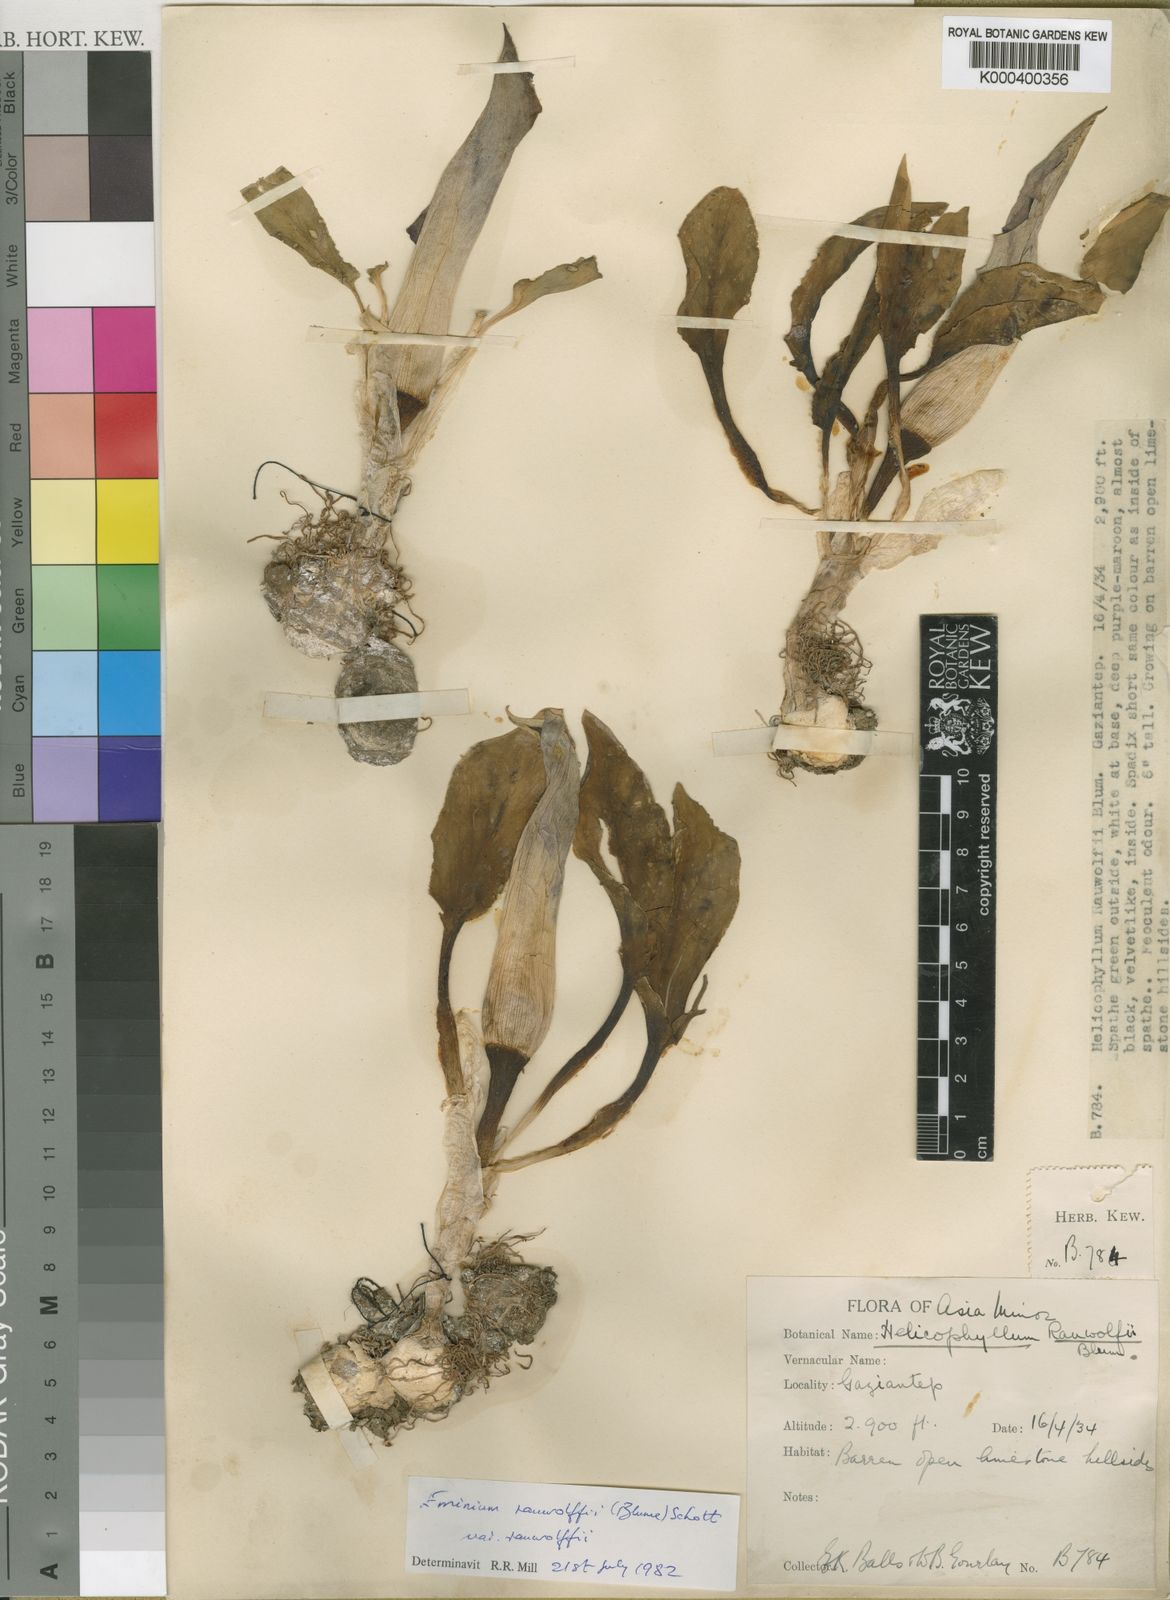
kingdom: Plantae
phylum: Tracheophyta
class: Liliopsida
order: Alismatales
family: Araceae
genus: Eminium
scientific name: Eminium rauwolffii
